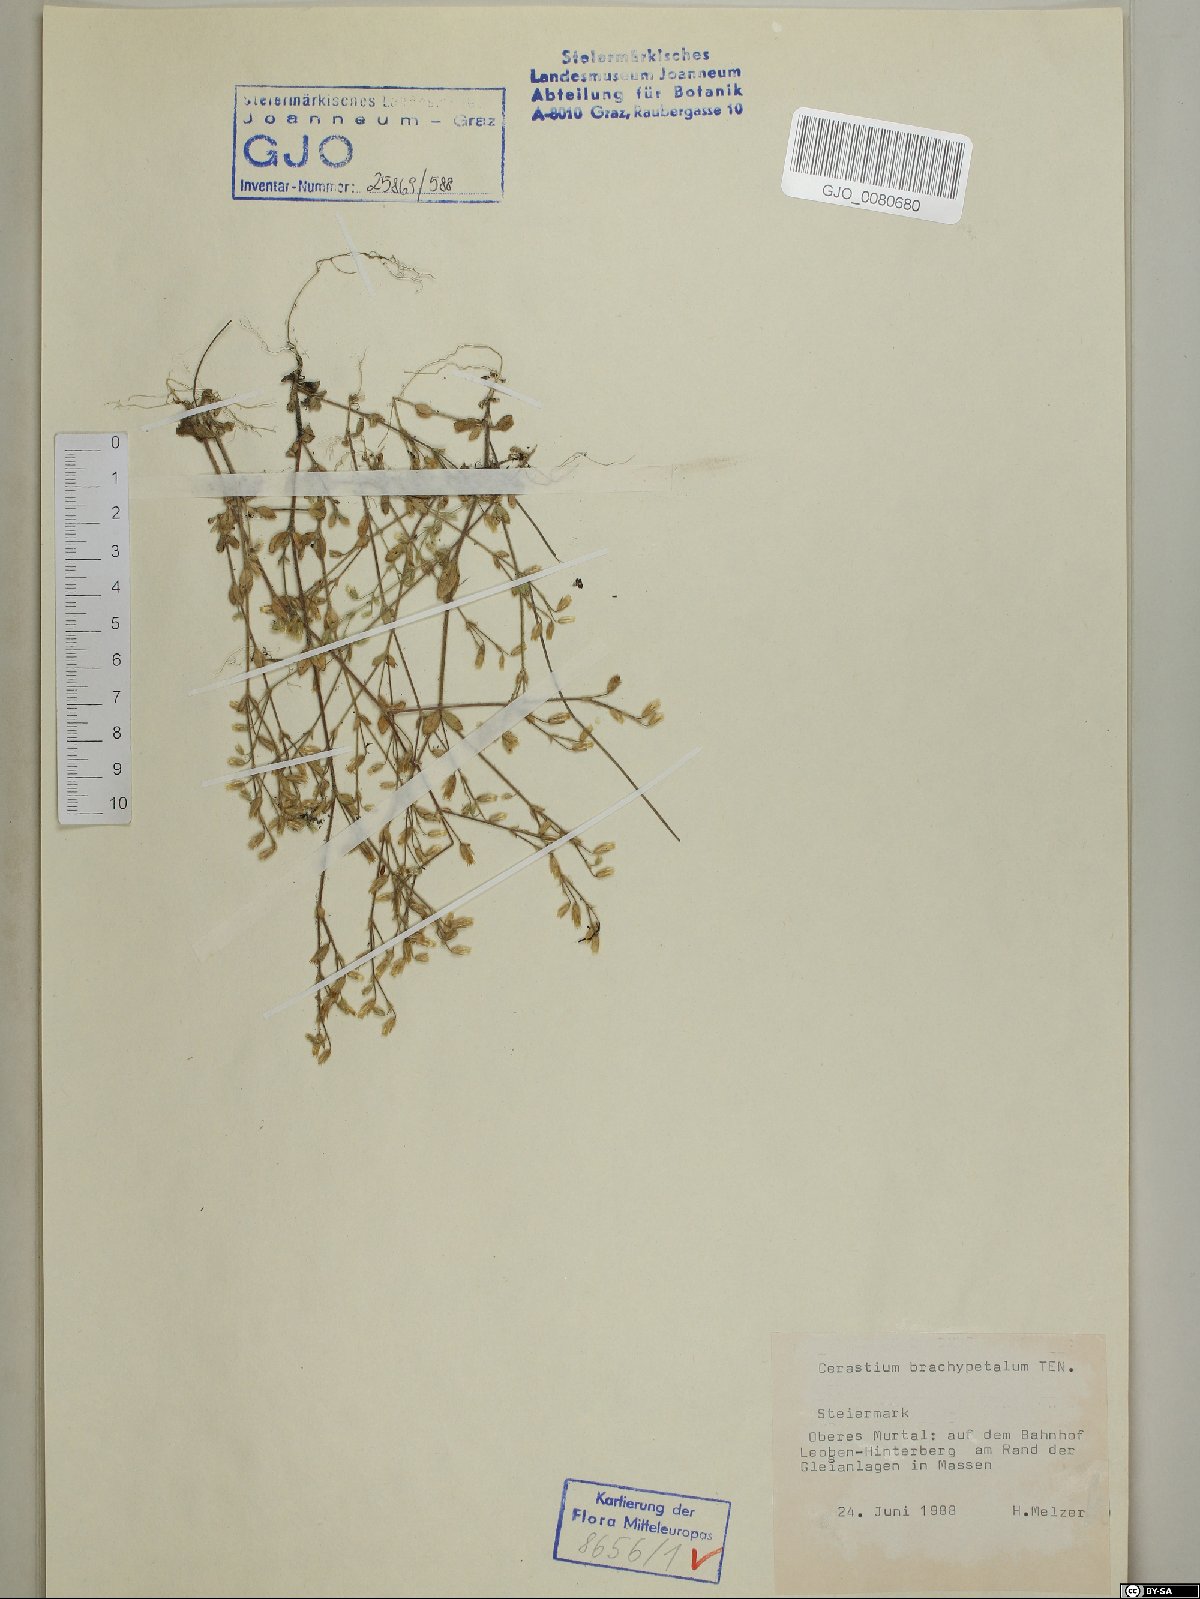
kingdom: Plantae
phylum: Tracheophyta
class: Magnoliopsida
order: Caryophyllales
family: Caryophyllaceae
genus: Cerastium
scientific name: Cerastium brachypetalum
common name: Grey mouse-ear
